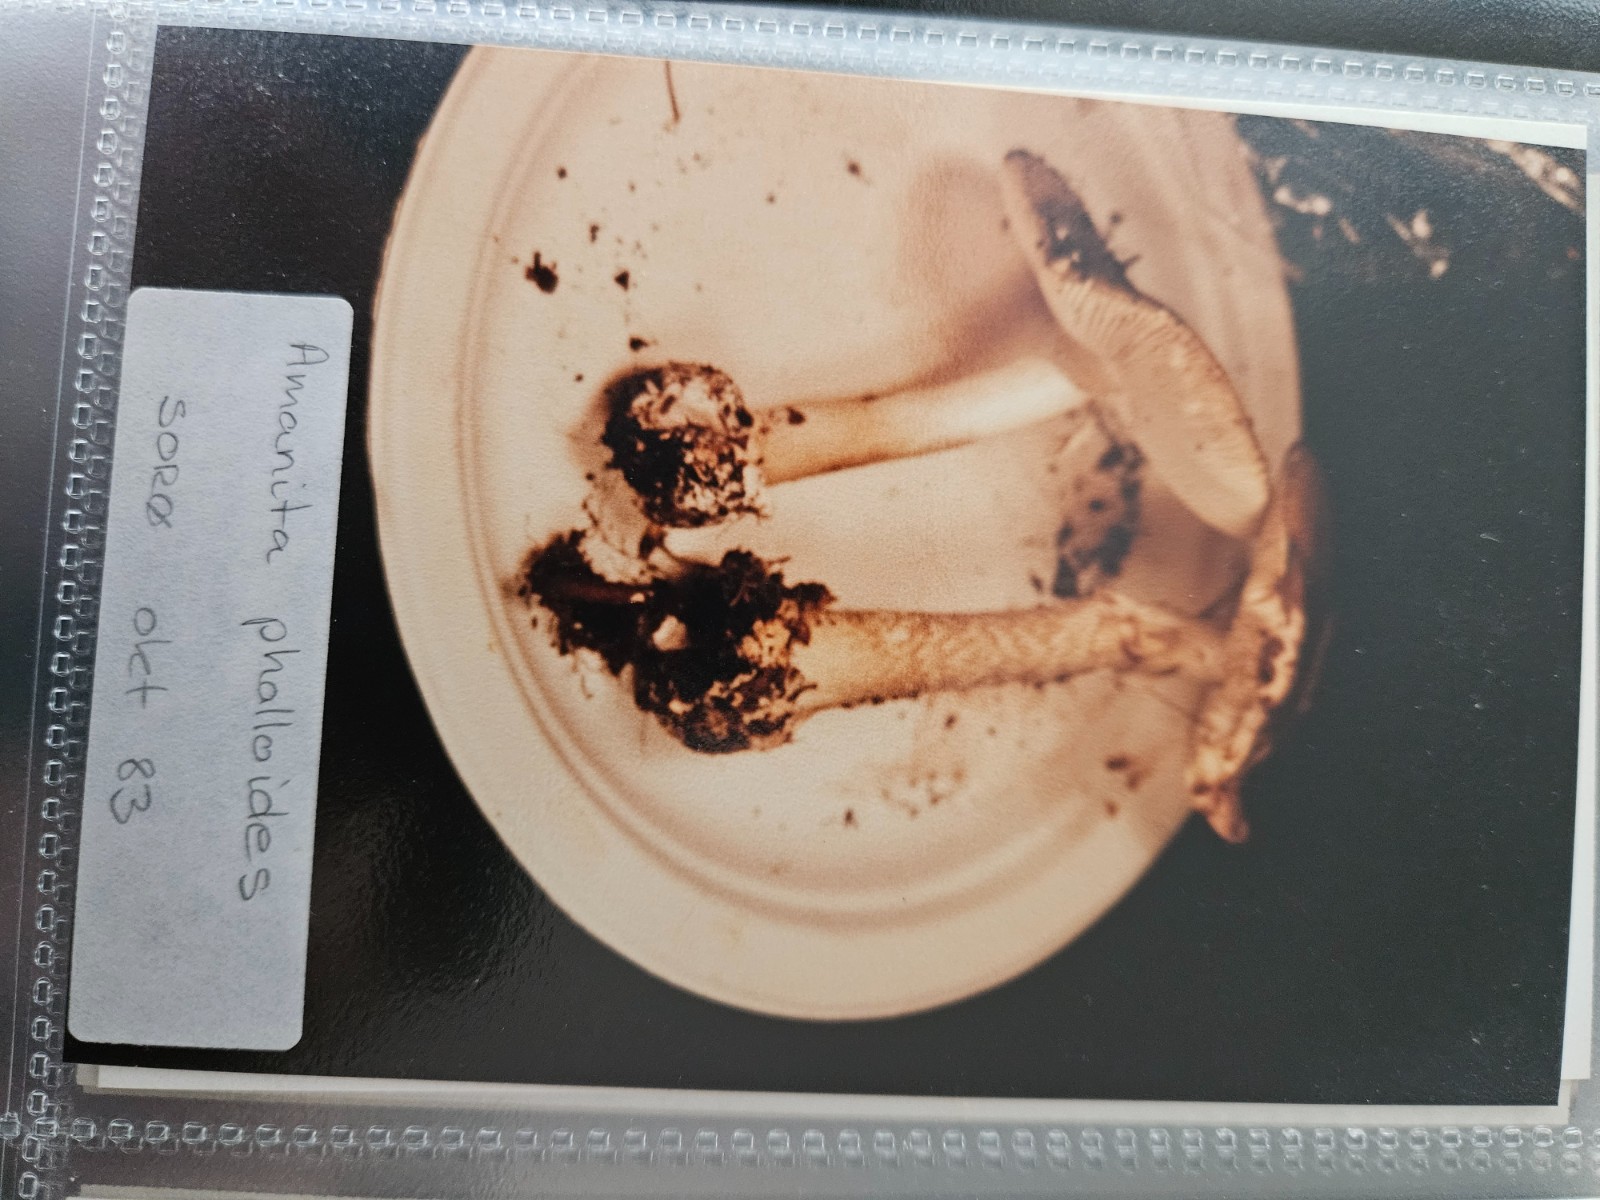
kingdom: Fungi
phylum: Basidiomycota
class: Agaricomycetes
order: Agaricales
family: Amanitaceae
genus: Amanita
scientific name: Amanita phalloides
